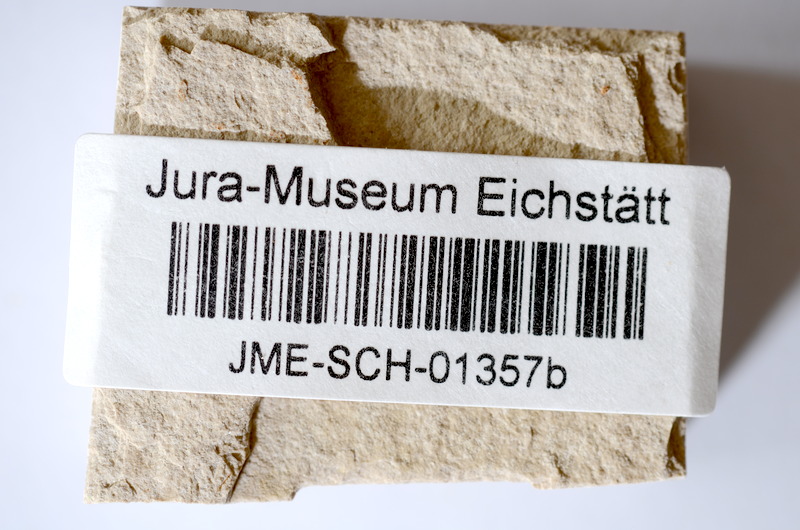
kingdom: Animalia
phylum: Chordata
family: Ascalaboidae
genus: Tharsis
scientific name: Tharsis dubius
